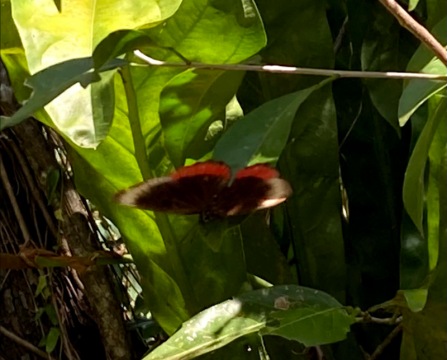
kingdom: Animalia
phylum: Arthropoda
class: Insecta
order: Lepidoptera
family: Sesiidae
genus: Sesia
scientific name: Sesia Biblis hyperia
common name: Red Rim
